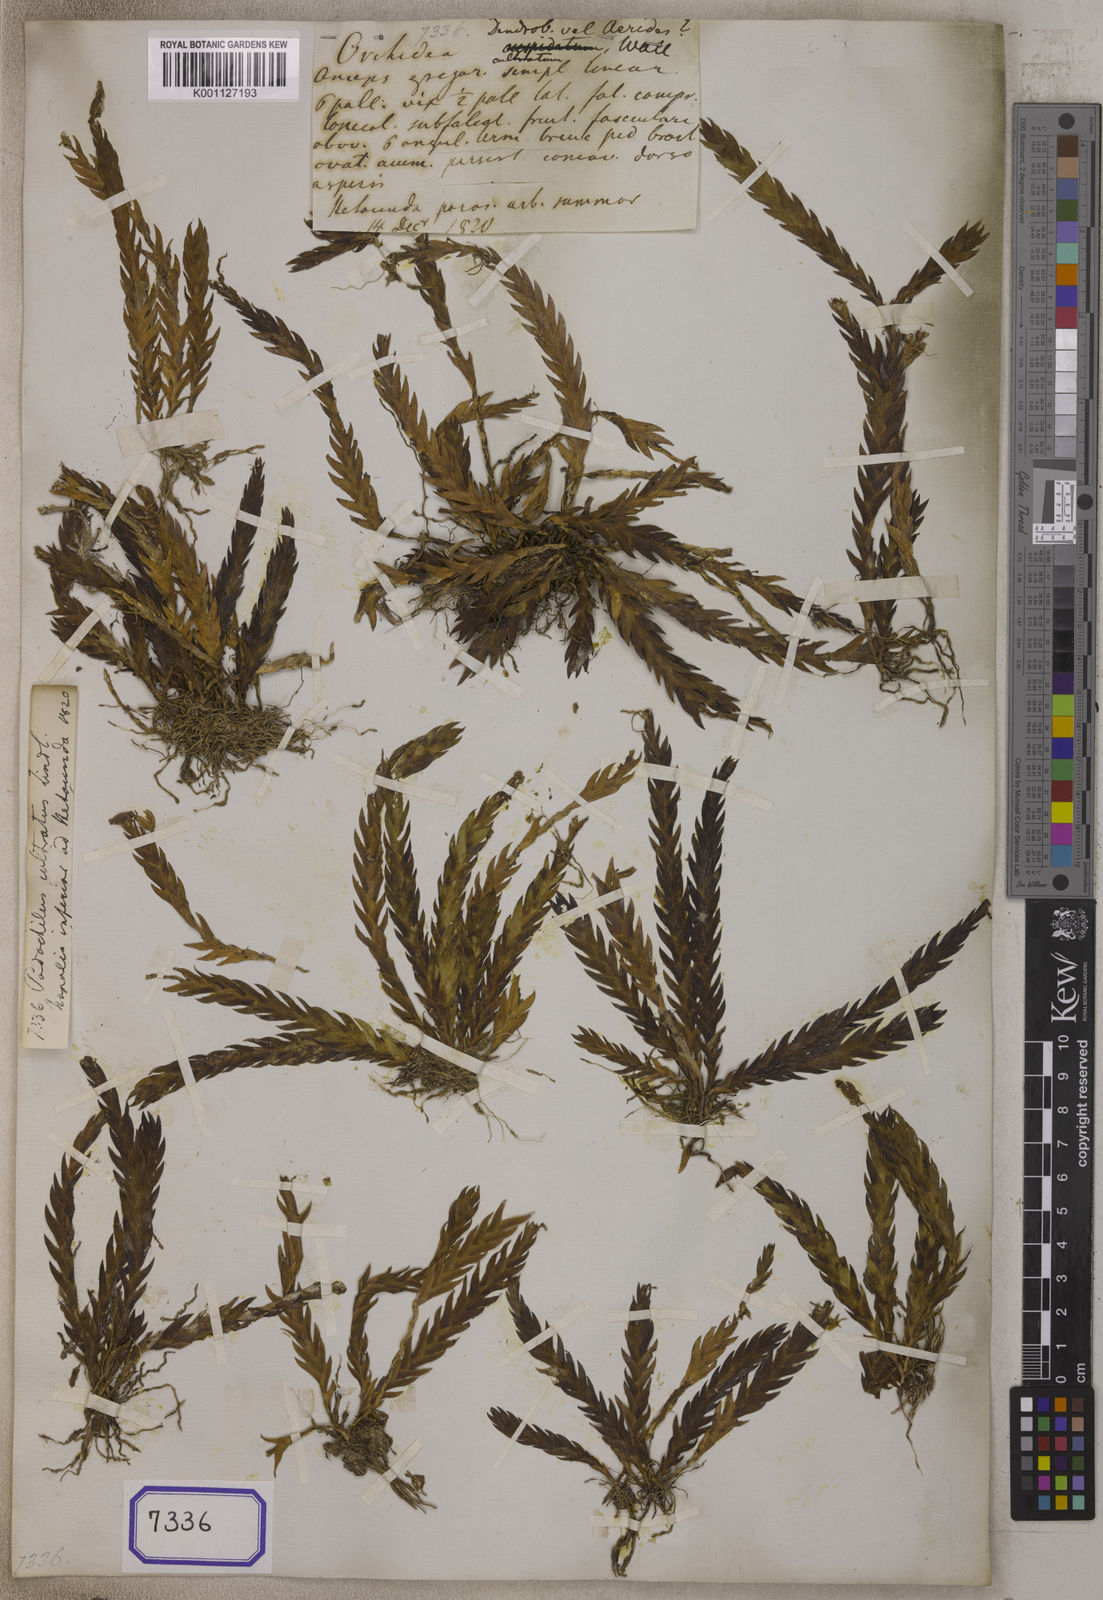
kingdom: Plantae
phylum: Tracheophyta
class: Liliopsida
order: Asparagales
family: Orchidaceae
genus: Podochilus
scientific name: Podochilus cultratus
